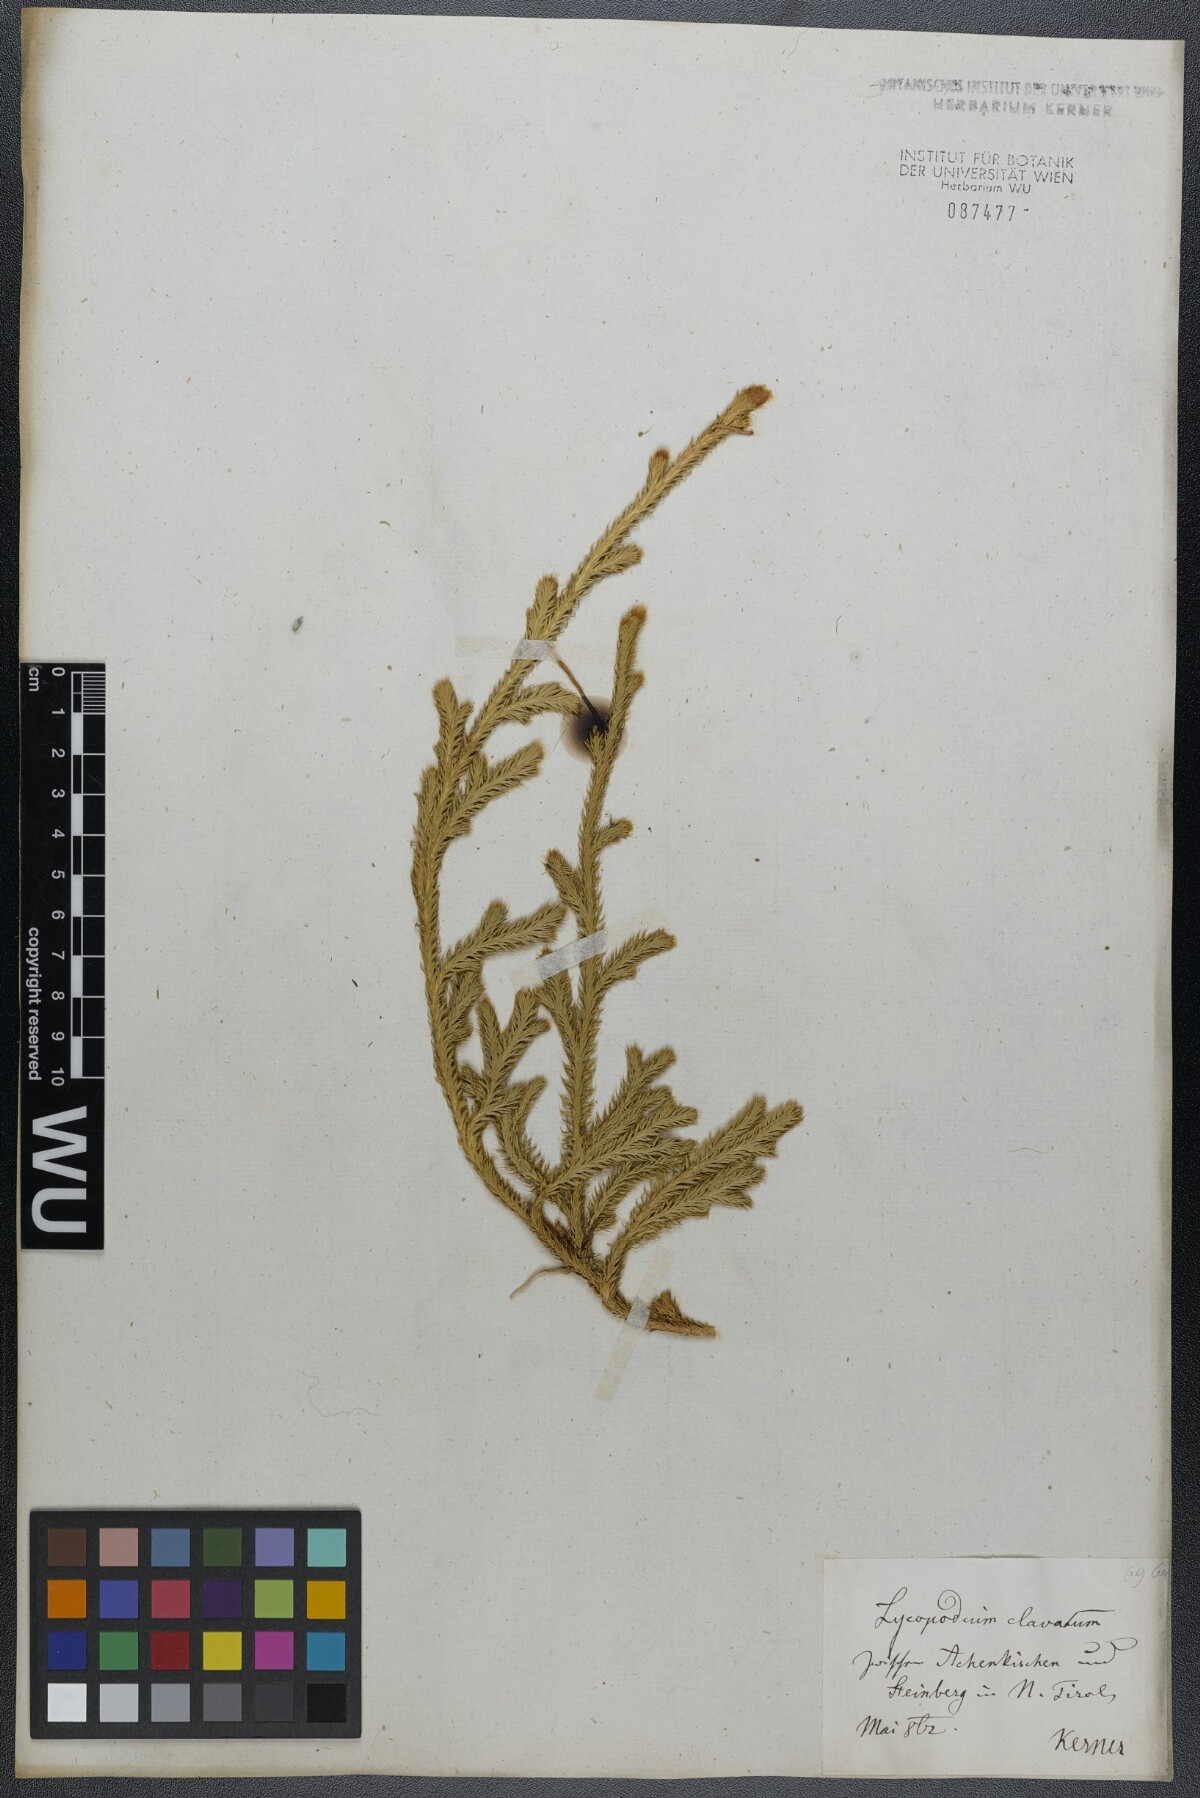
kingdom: Plantae
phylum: Tracheophyta
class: Lycopodiopsida
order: Lycopodiales
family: Lycopodiaceae
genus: Lycopodium
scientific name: Lycopodium clavatum
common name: Stag's-horn clubmoss
